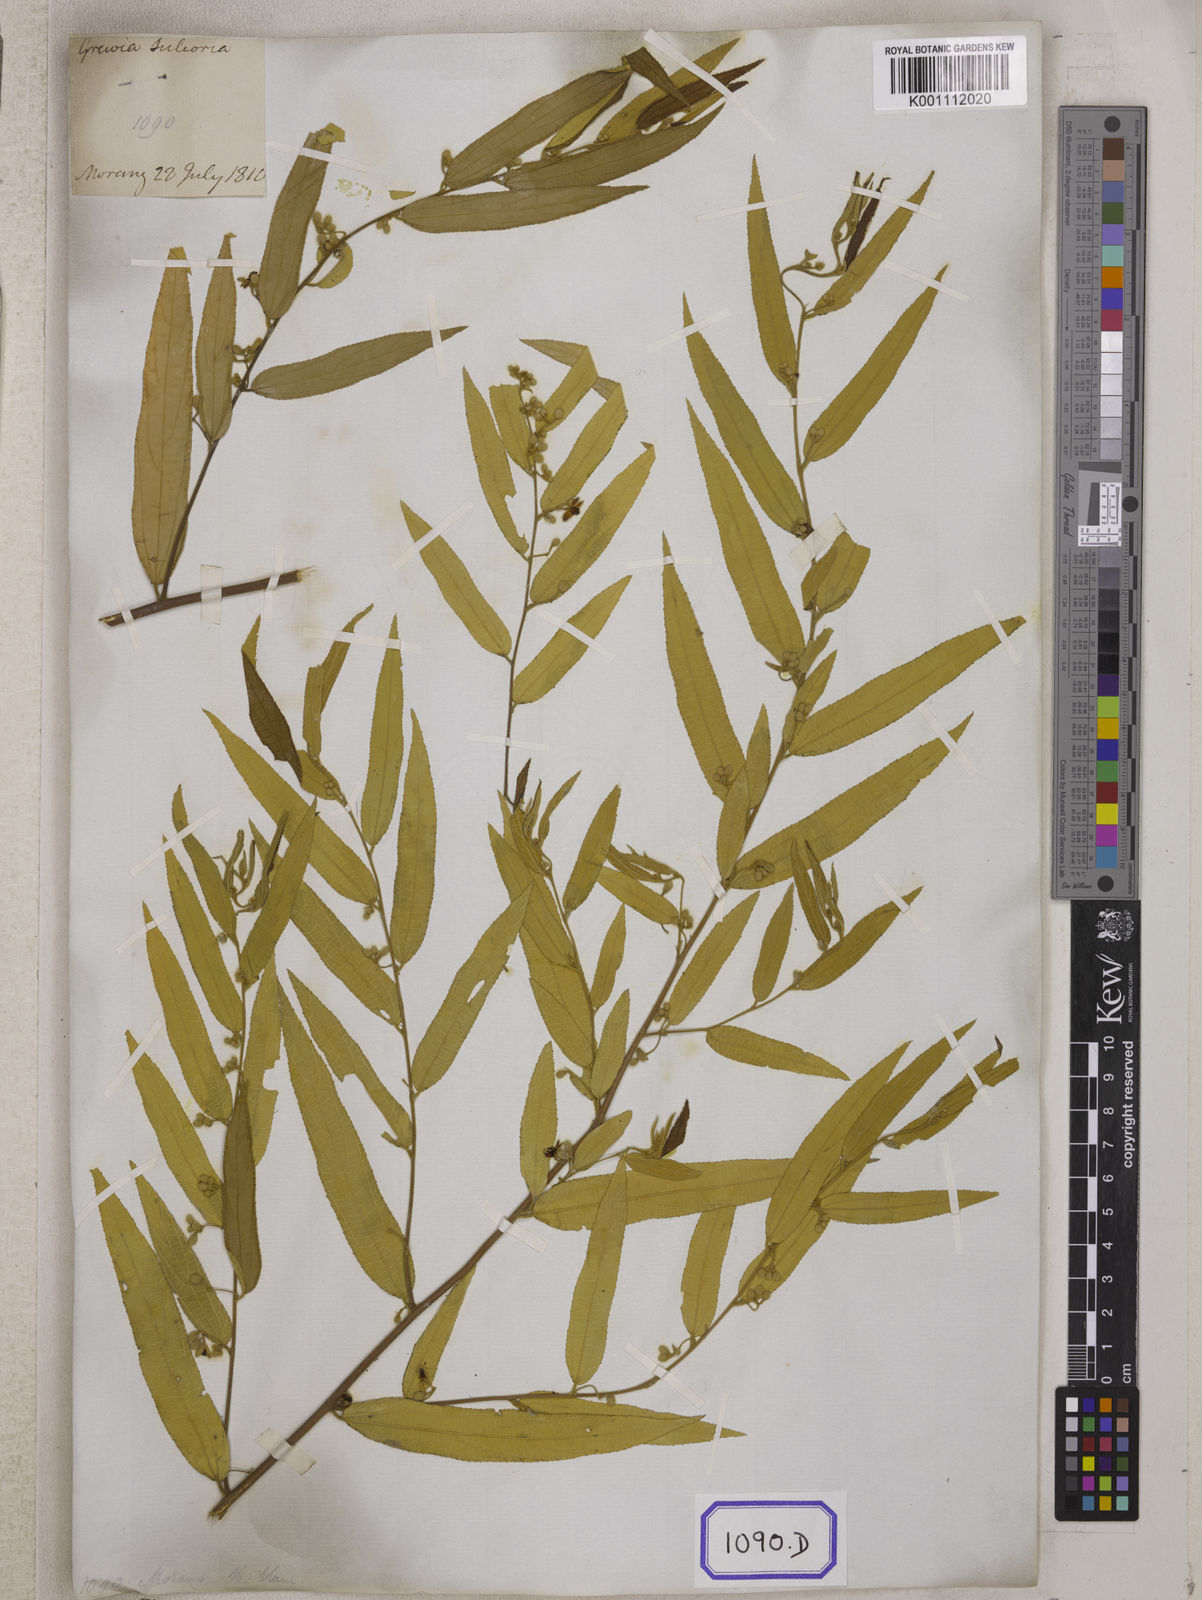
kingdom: Plantae
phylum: Tracheophyta
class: Magnoliopsida
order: Malvales
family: Malvaceae
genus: Grewia
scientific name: Grewia
